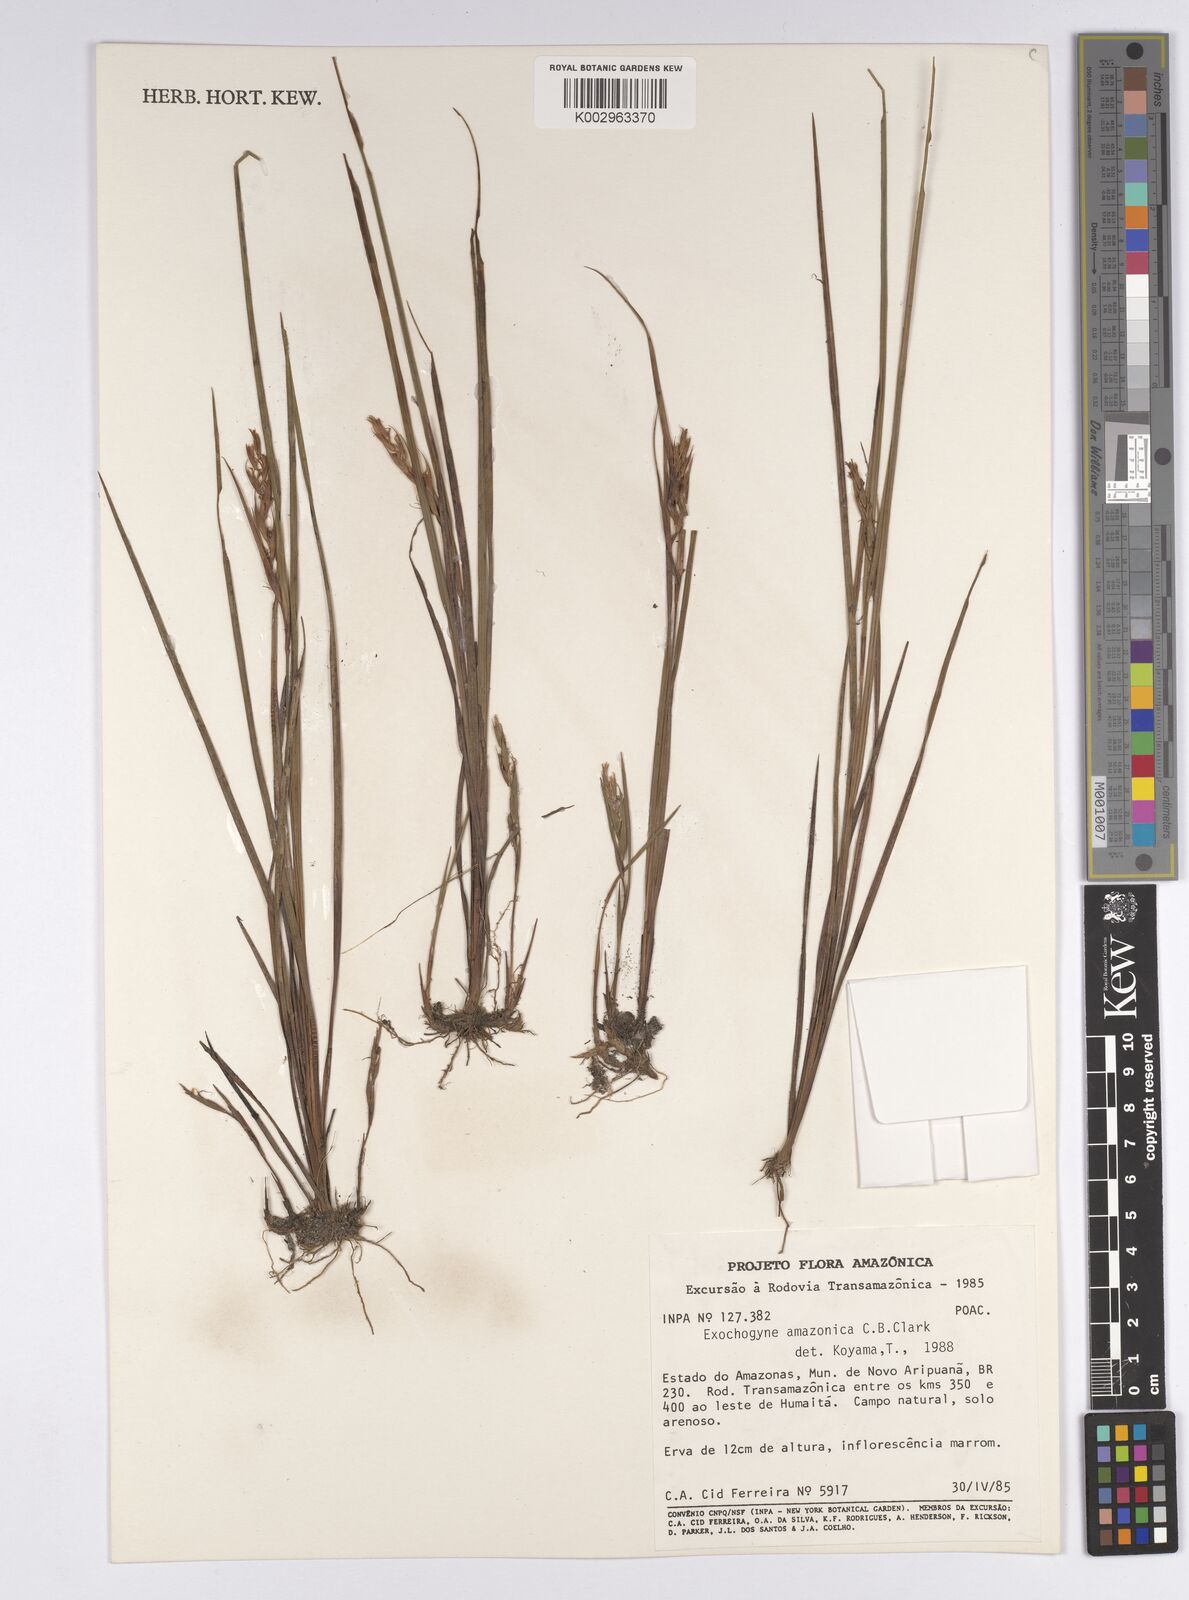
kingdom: Plantae
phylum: Tracheophyta
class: Liliopsida
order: Poales
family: Cyperaceae
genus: Exochogyne
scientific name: Exochogyne amazonica
